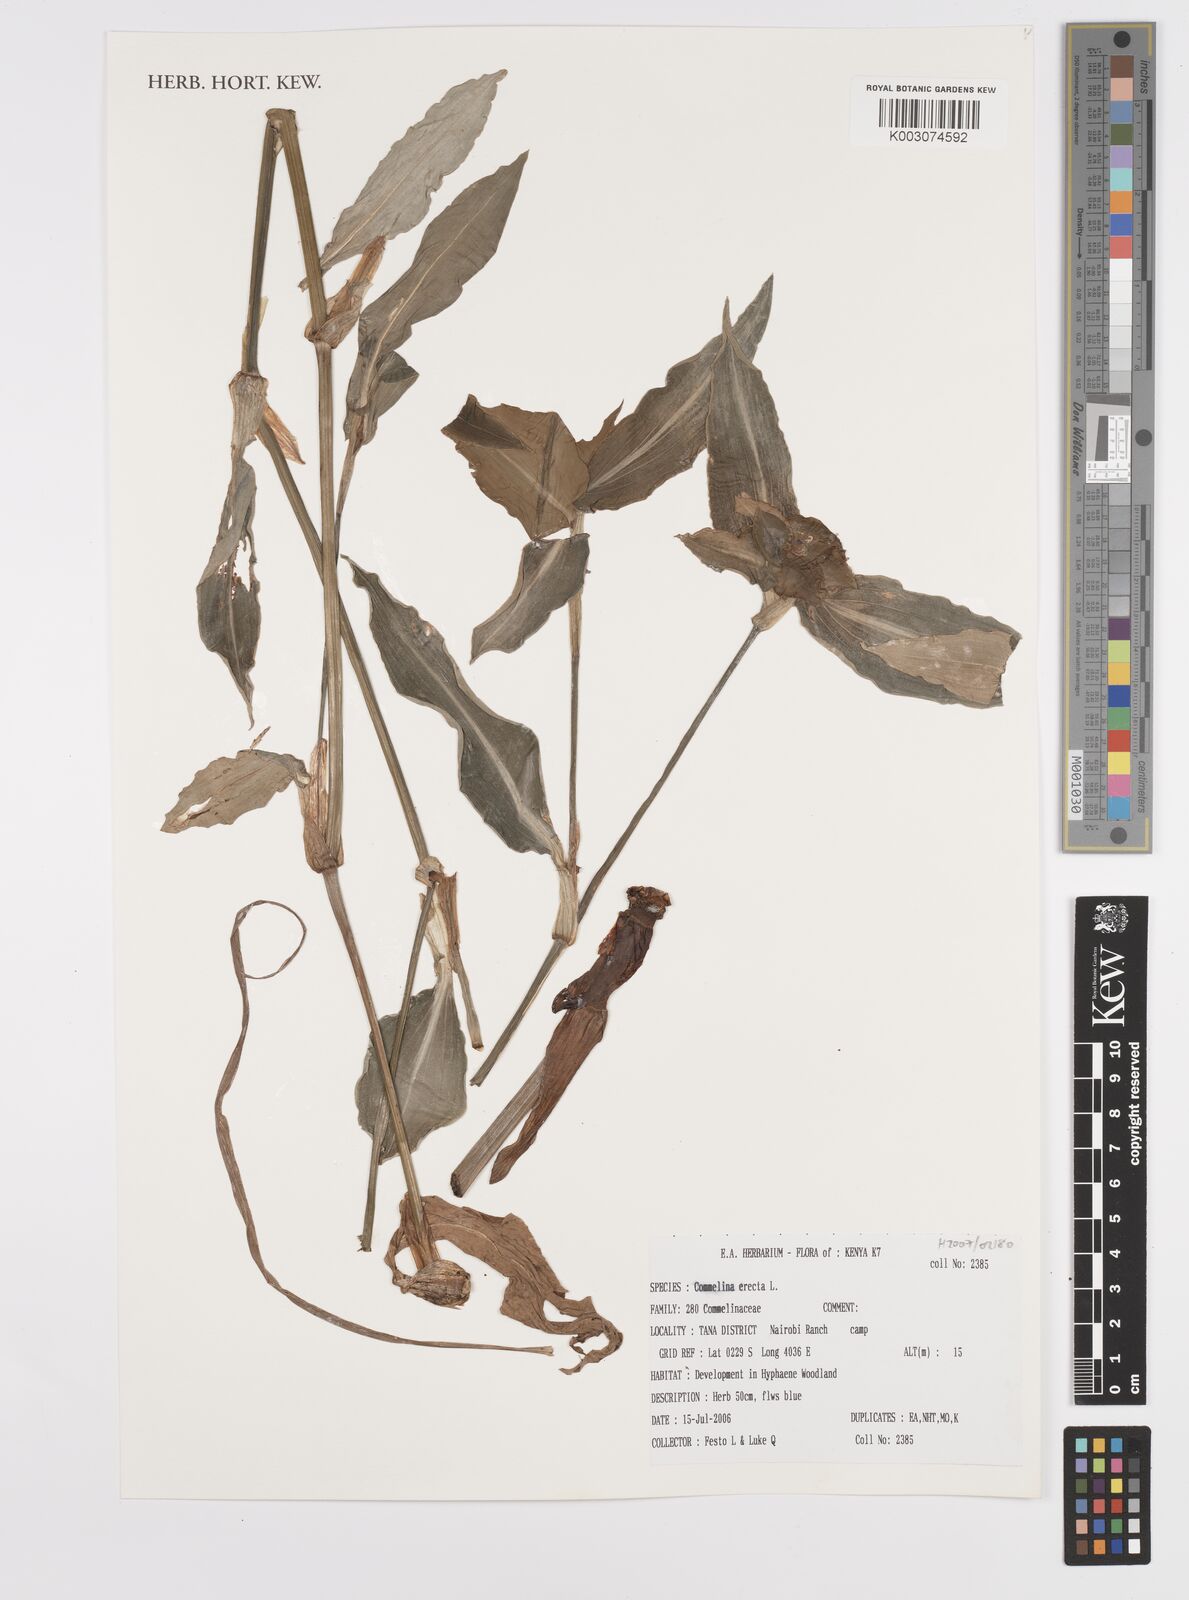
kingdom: Plantae
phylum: Tracheophyta
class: Liliopsida
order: Commelinales
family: Commelinaceae
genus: Commelina
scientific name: Commelina erecta
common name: Blousel blommetjie
